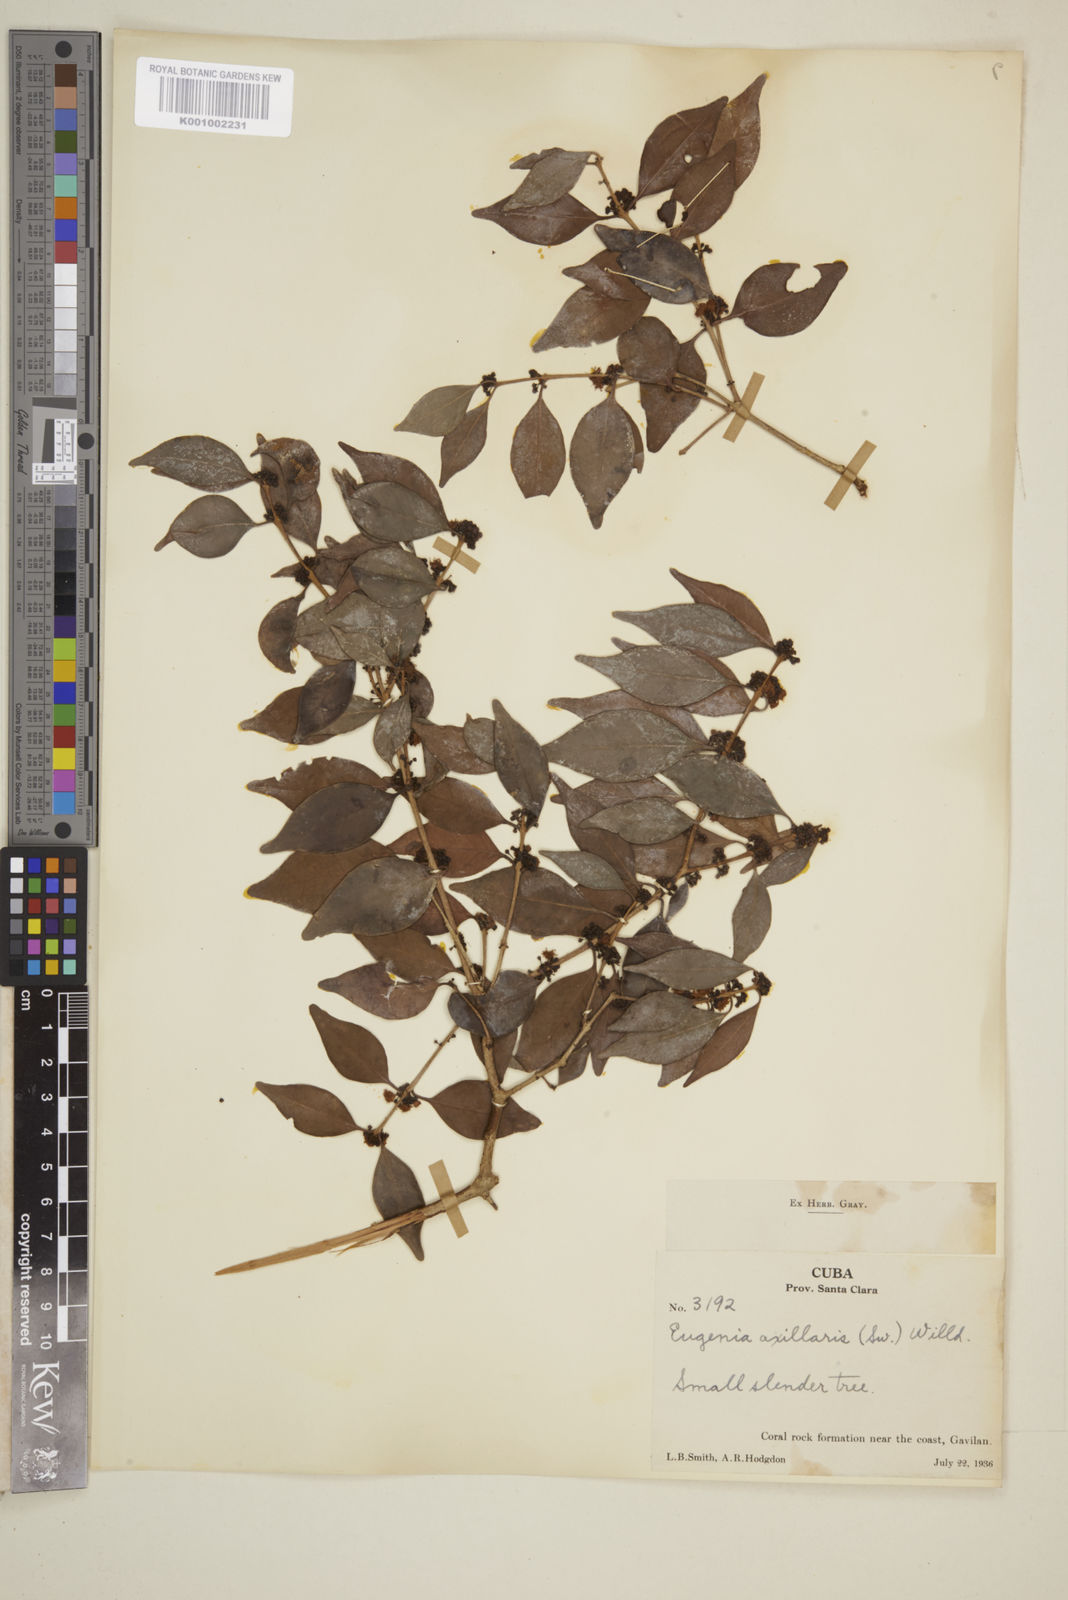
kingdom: Plantae
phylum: Tracheophyta
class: Magnoliopsida
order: Myrtales
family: Myrtaceae
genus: Eugenia
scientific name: Eugenia axillaris
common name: Choaky berry
